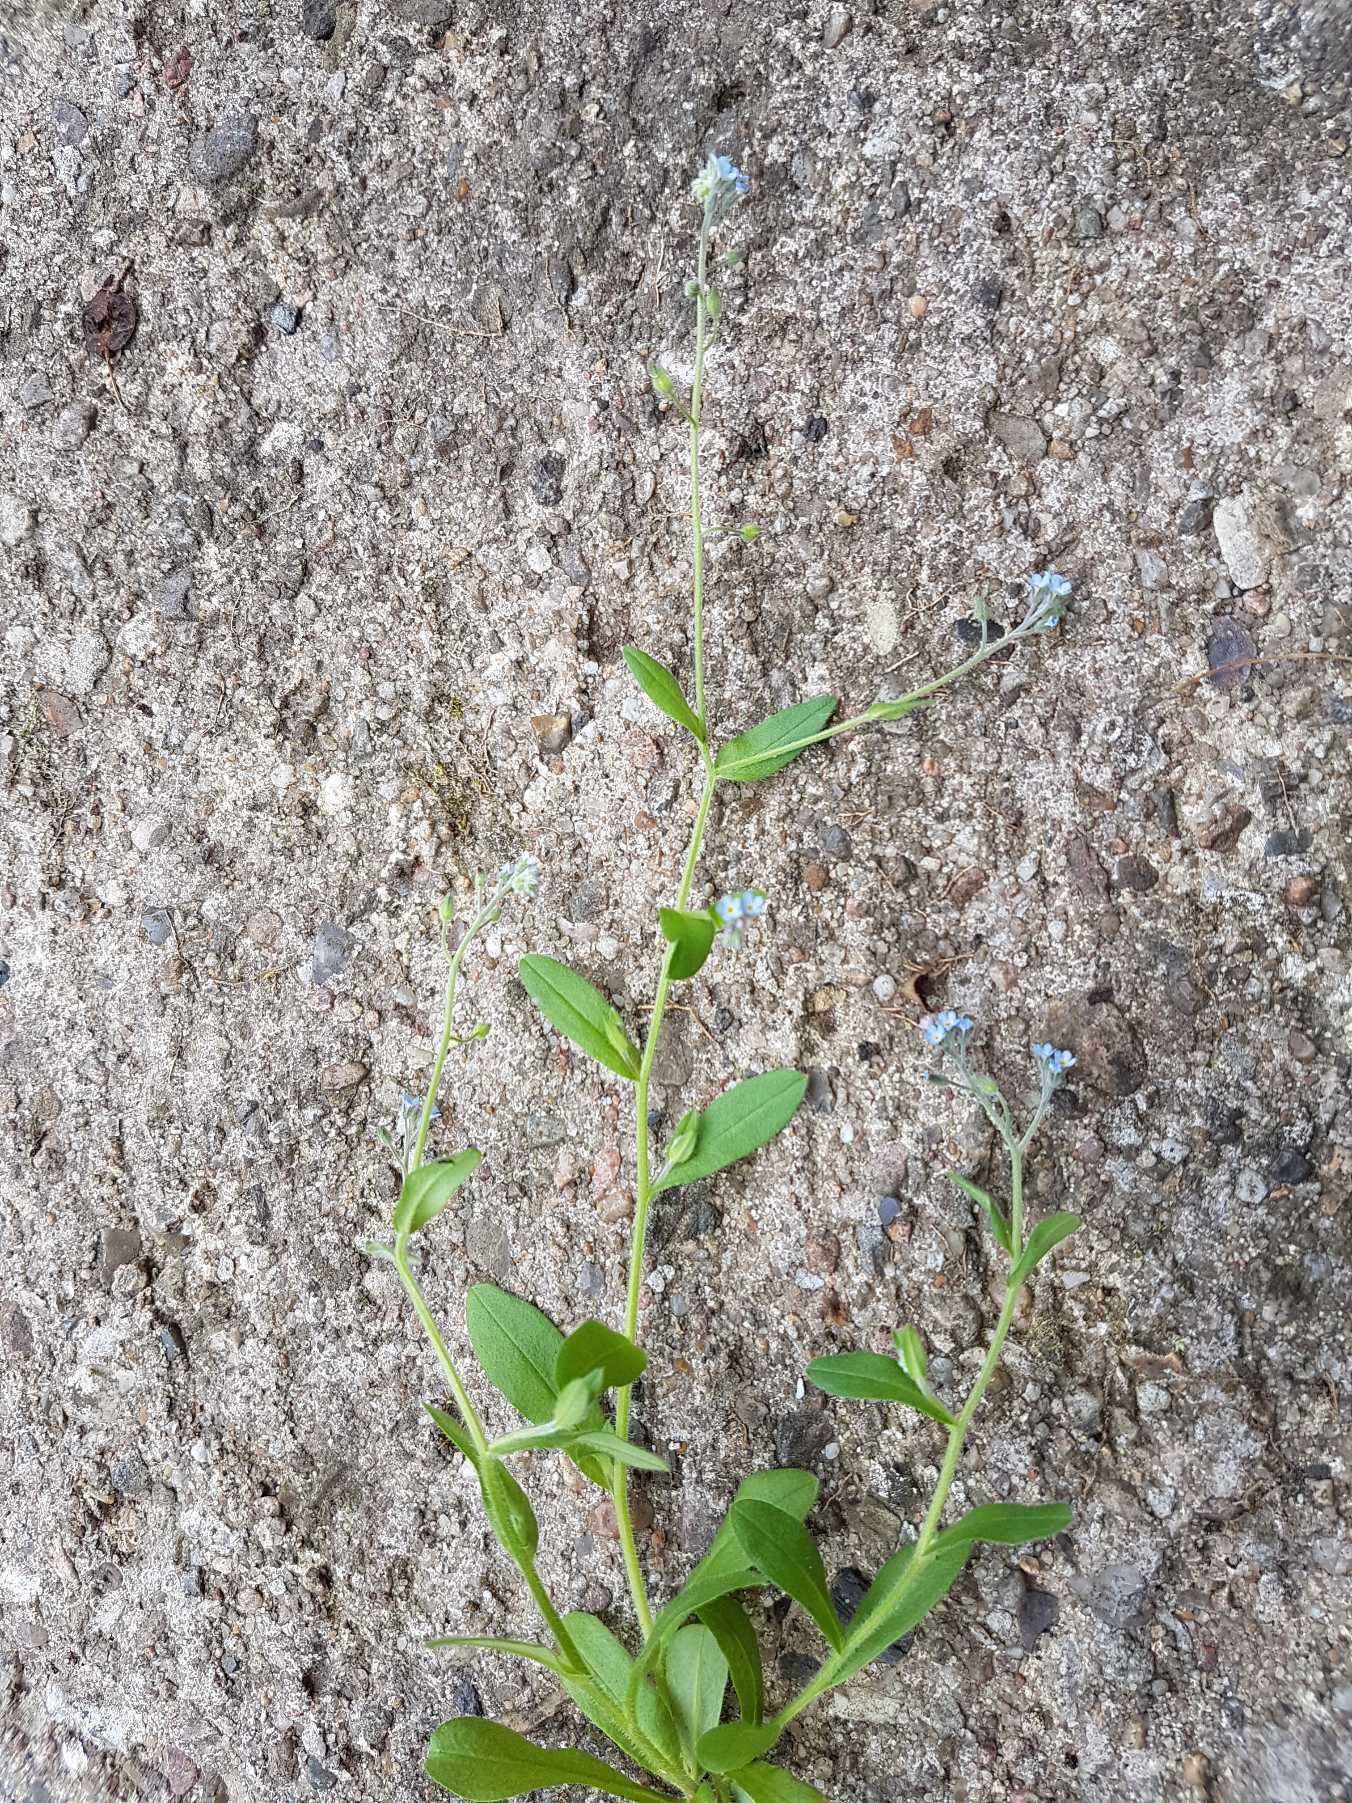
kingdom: Plantae
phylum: Tracheophyta
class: Magnoliopsida
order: Boraginales
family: Boraginaceae
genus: Myosotis
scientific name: Myosotis arvensis
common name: Mark-forglemmigej
